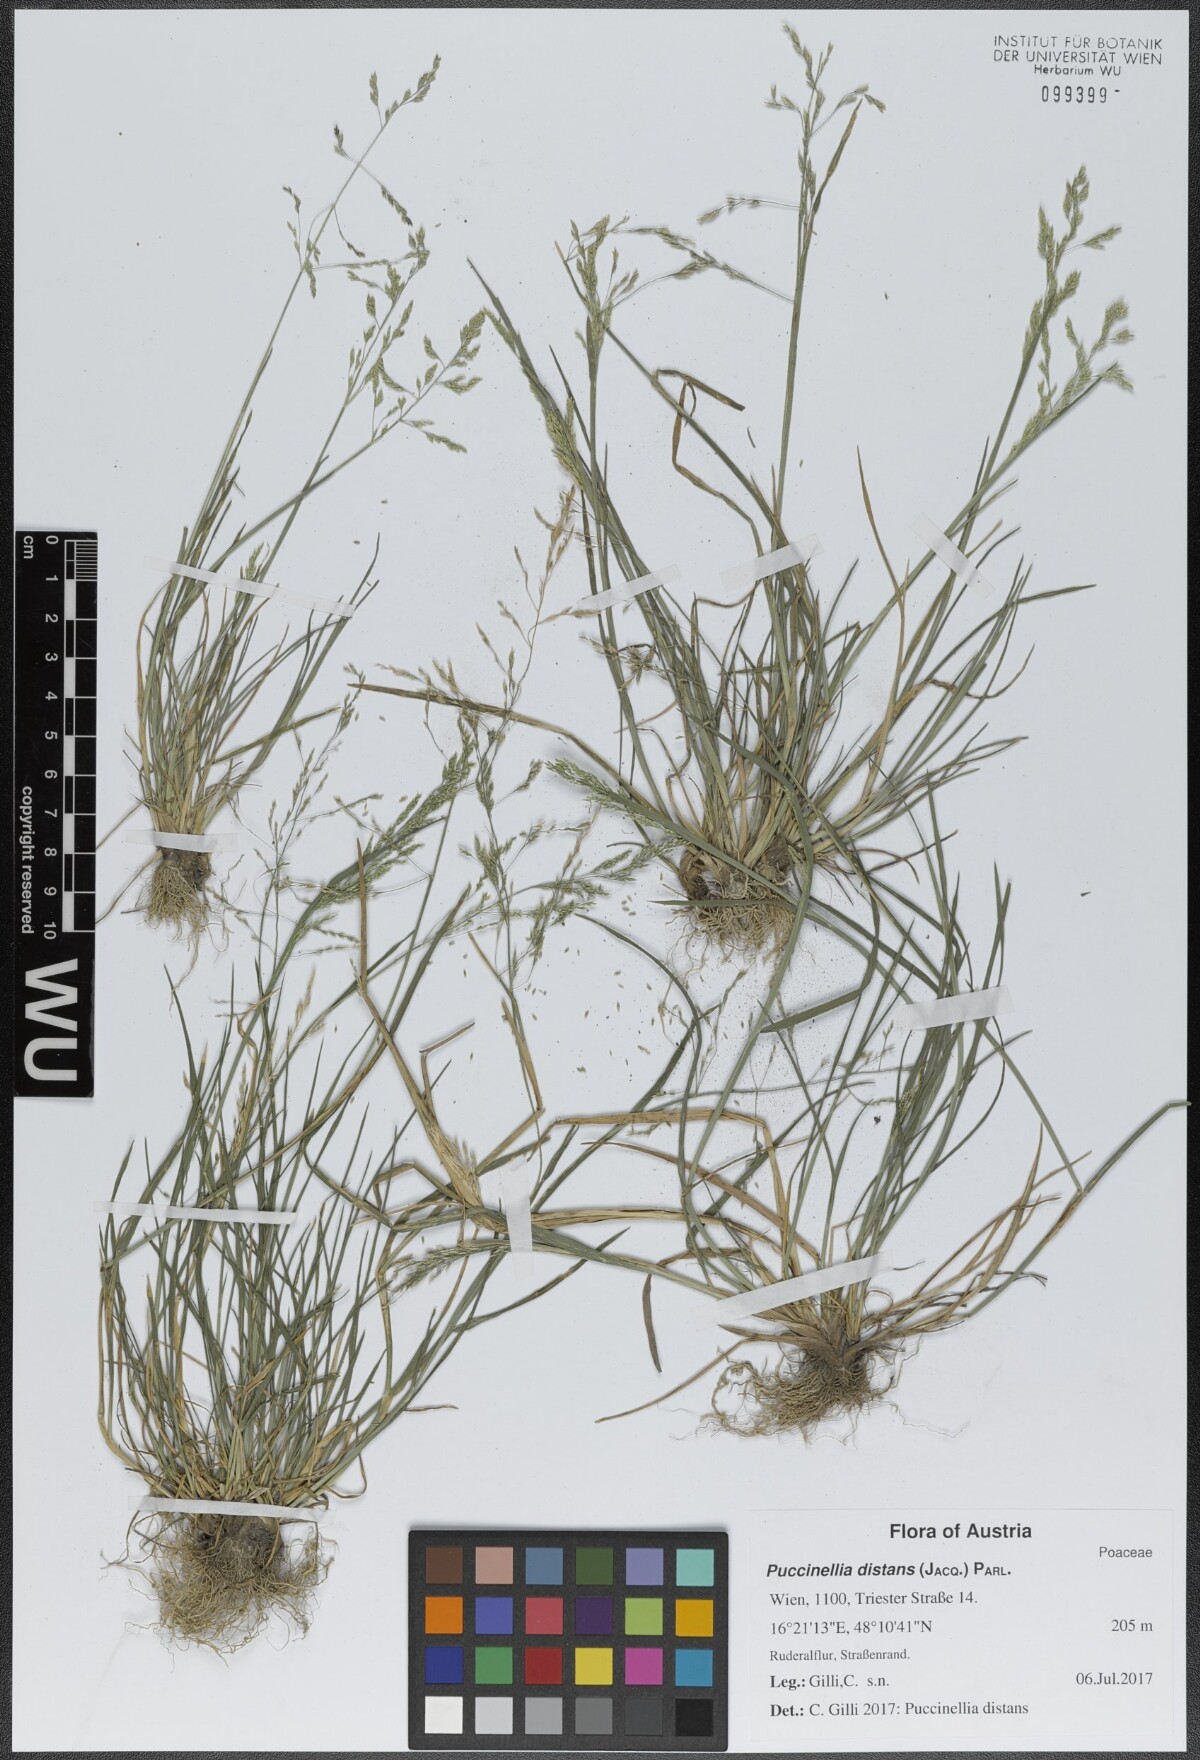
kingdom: Plantae
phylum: Tracheophyta
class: Liliopsida
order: Poales
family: Poaceae
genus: Puccinellia
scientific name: Puccinellia distans
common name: Weeping alkaligrass
